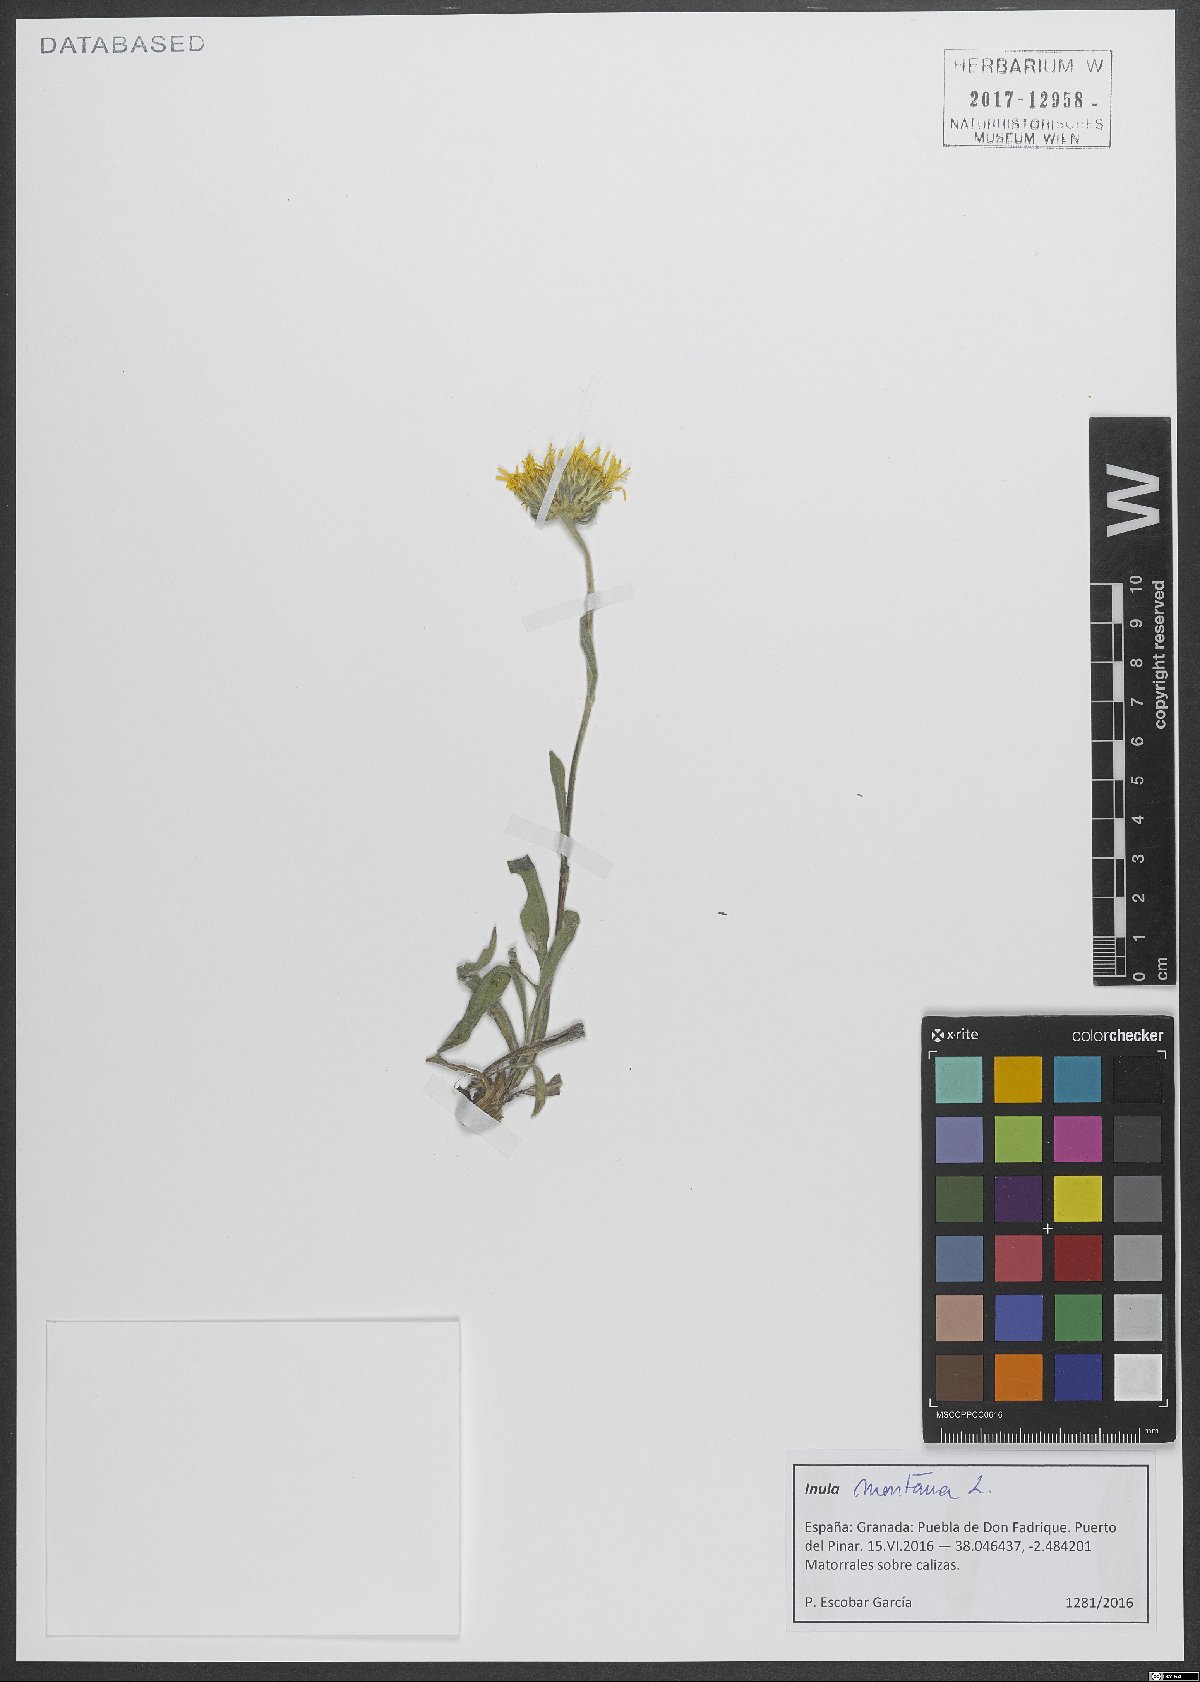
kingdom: Plantae
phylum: Tracheophyta
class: Magnoliopsida
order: Asterales
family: Asteraceae
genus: Pentanema
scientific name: Pentanema montanum
